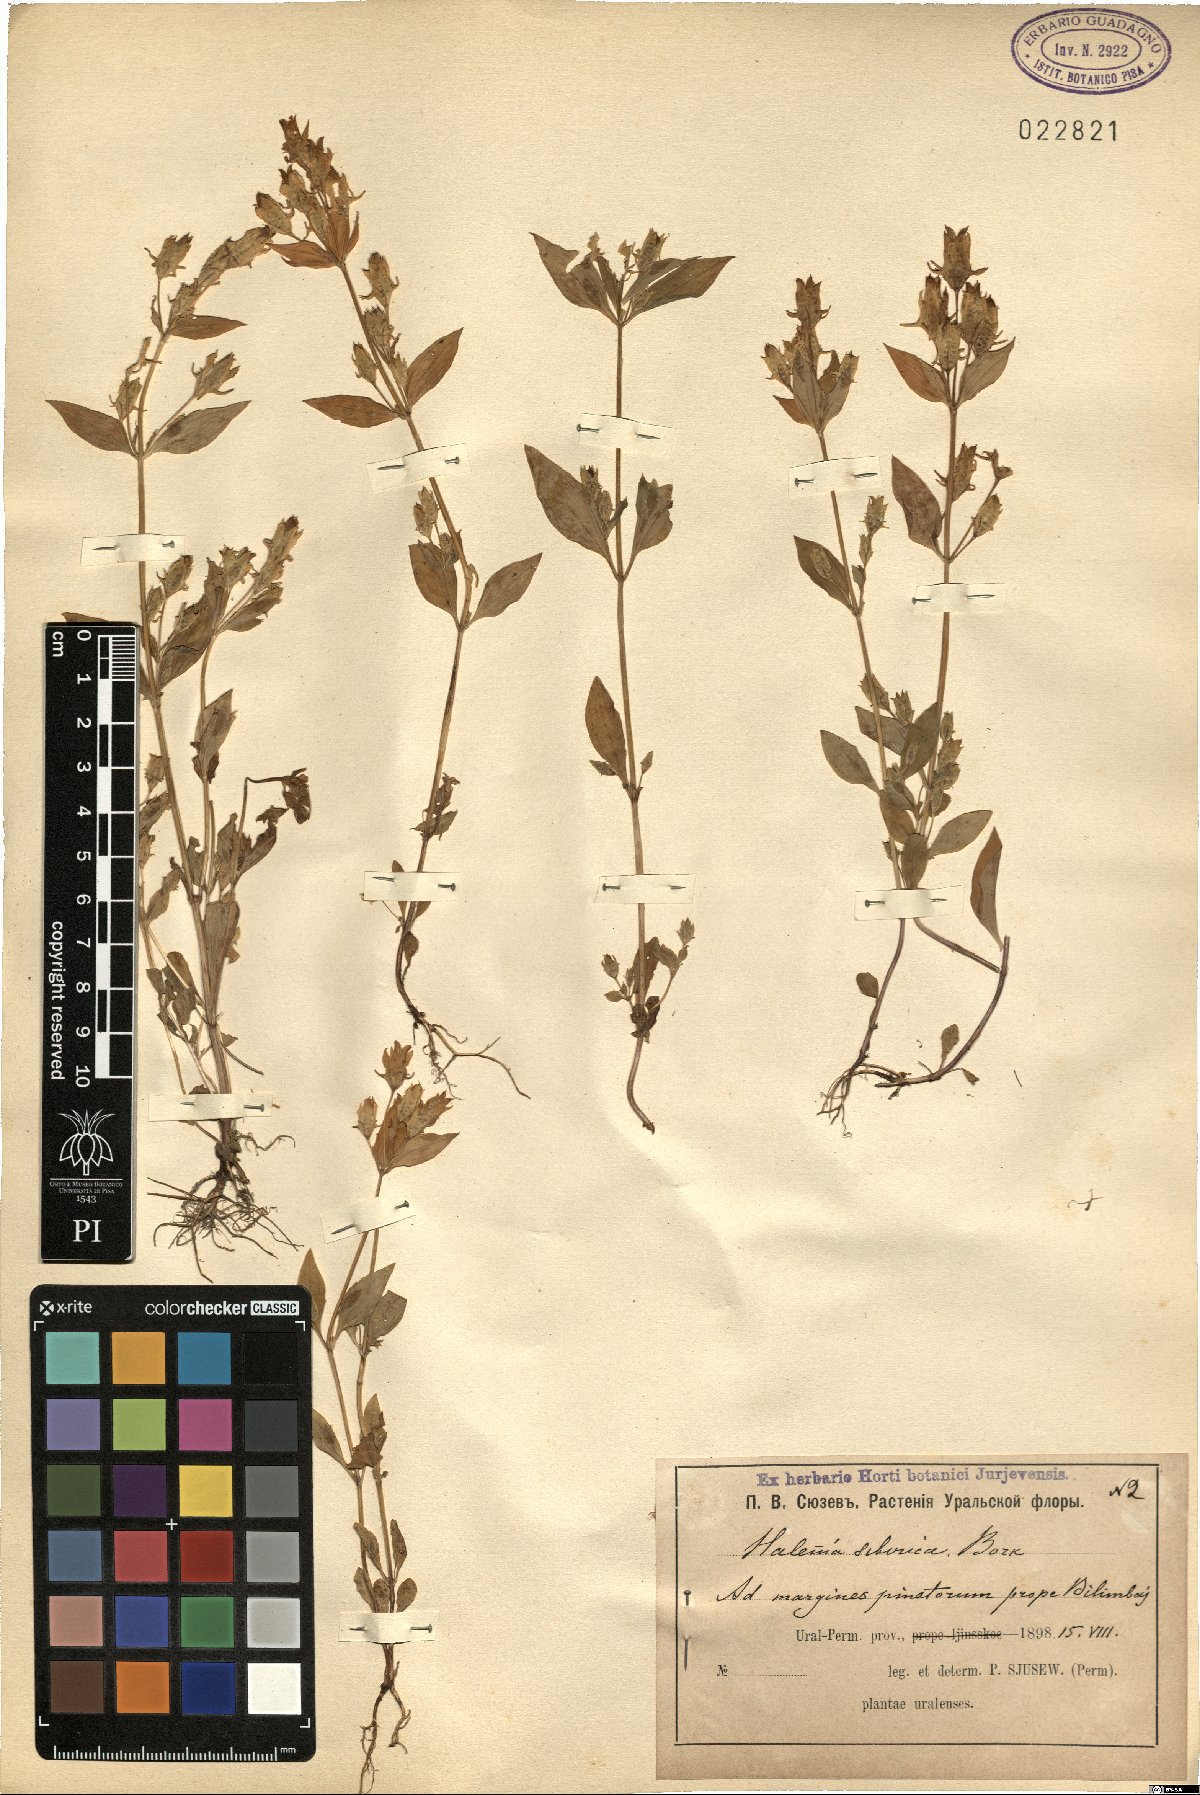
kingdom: Plantae
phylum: Tracheophyta
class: Magnoliopsida
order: Gentianales
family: Gentianaceae
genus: Halenia
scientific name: Halenia corniculata
